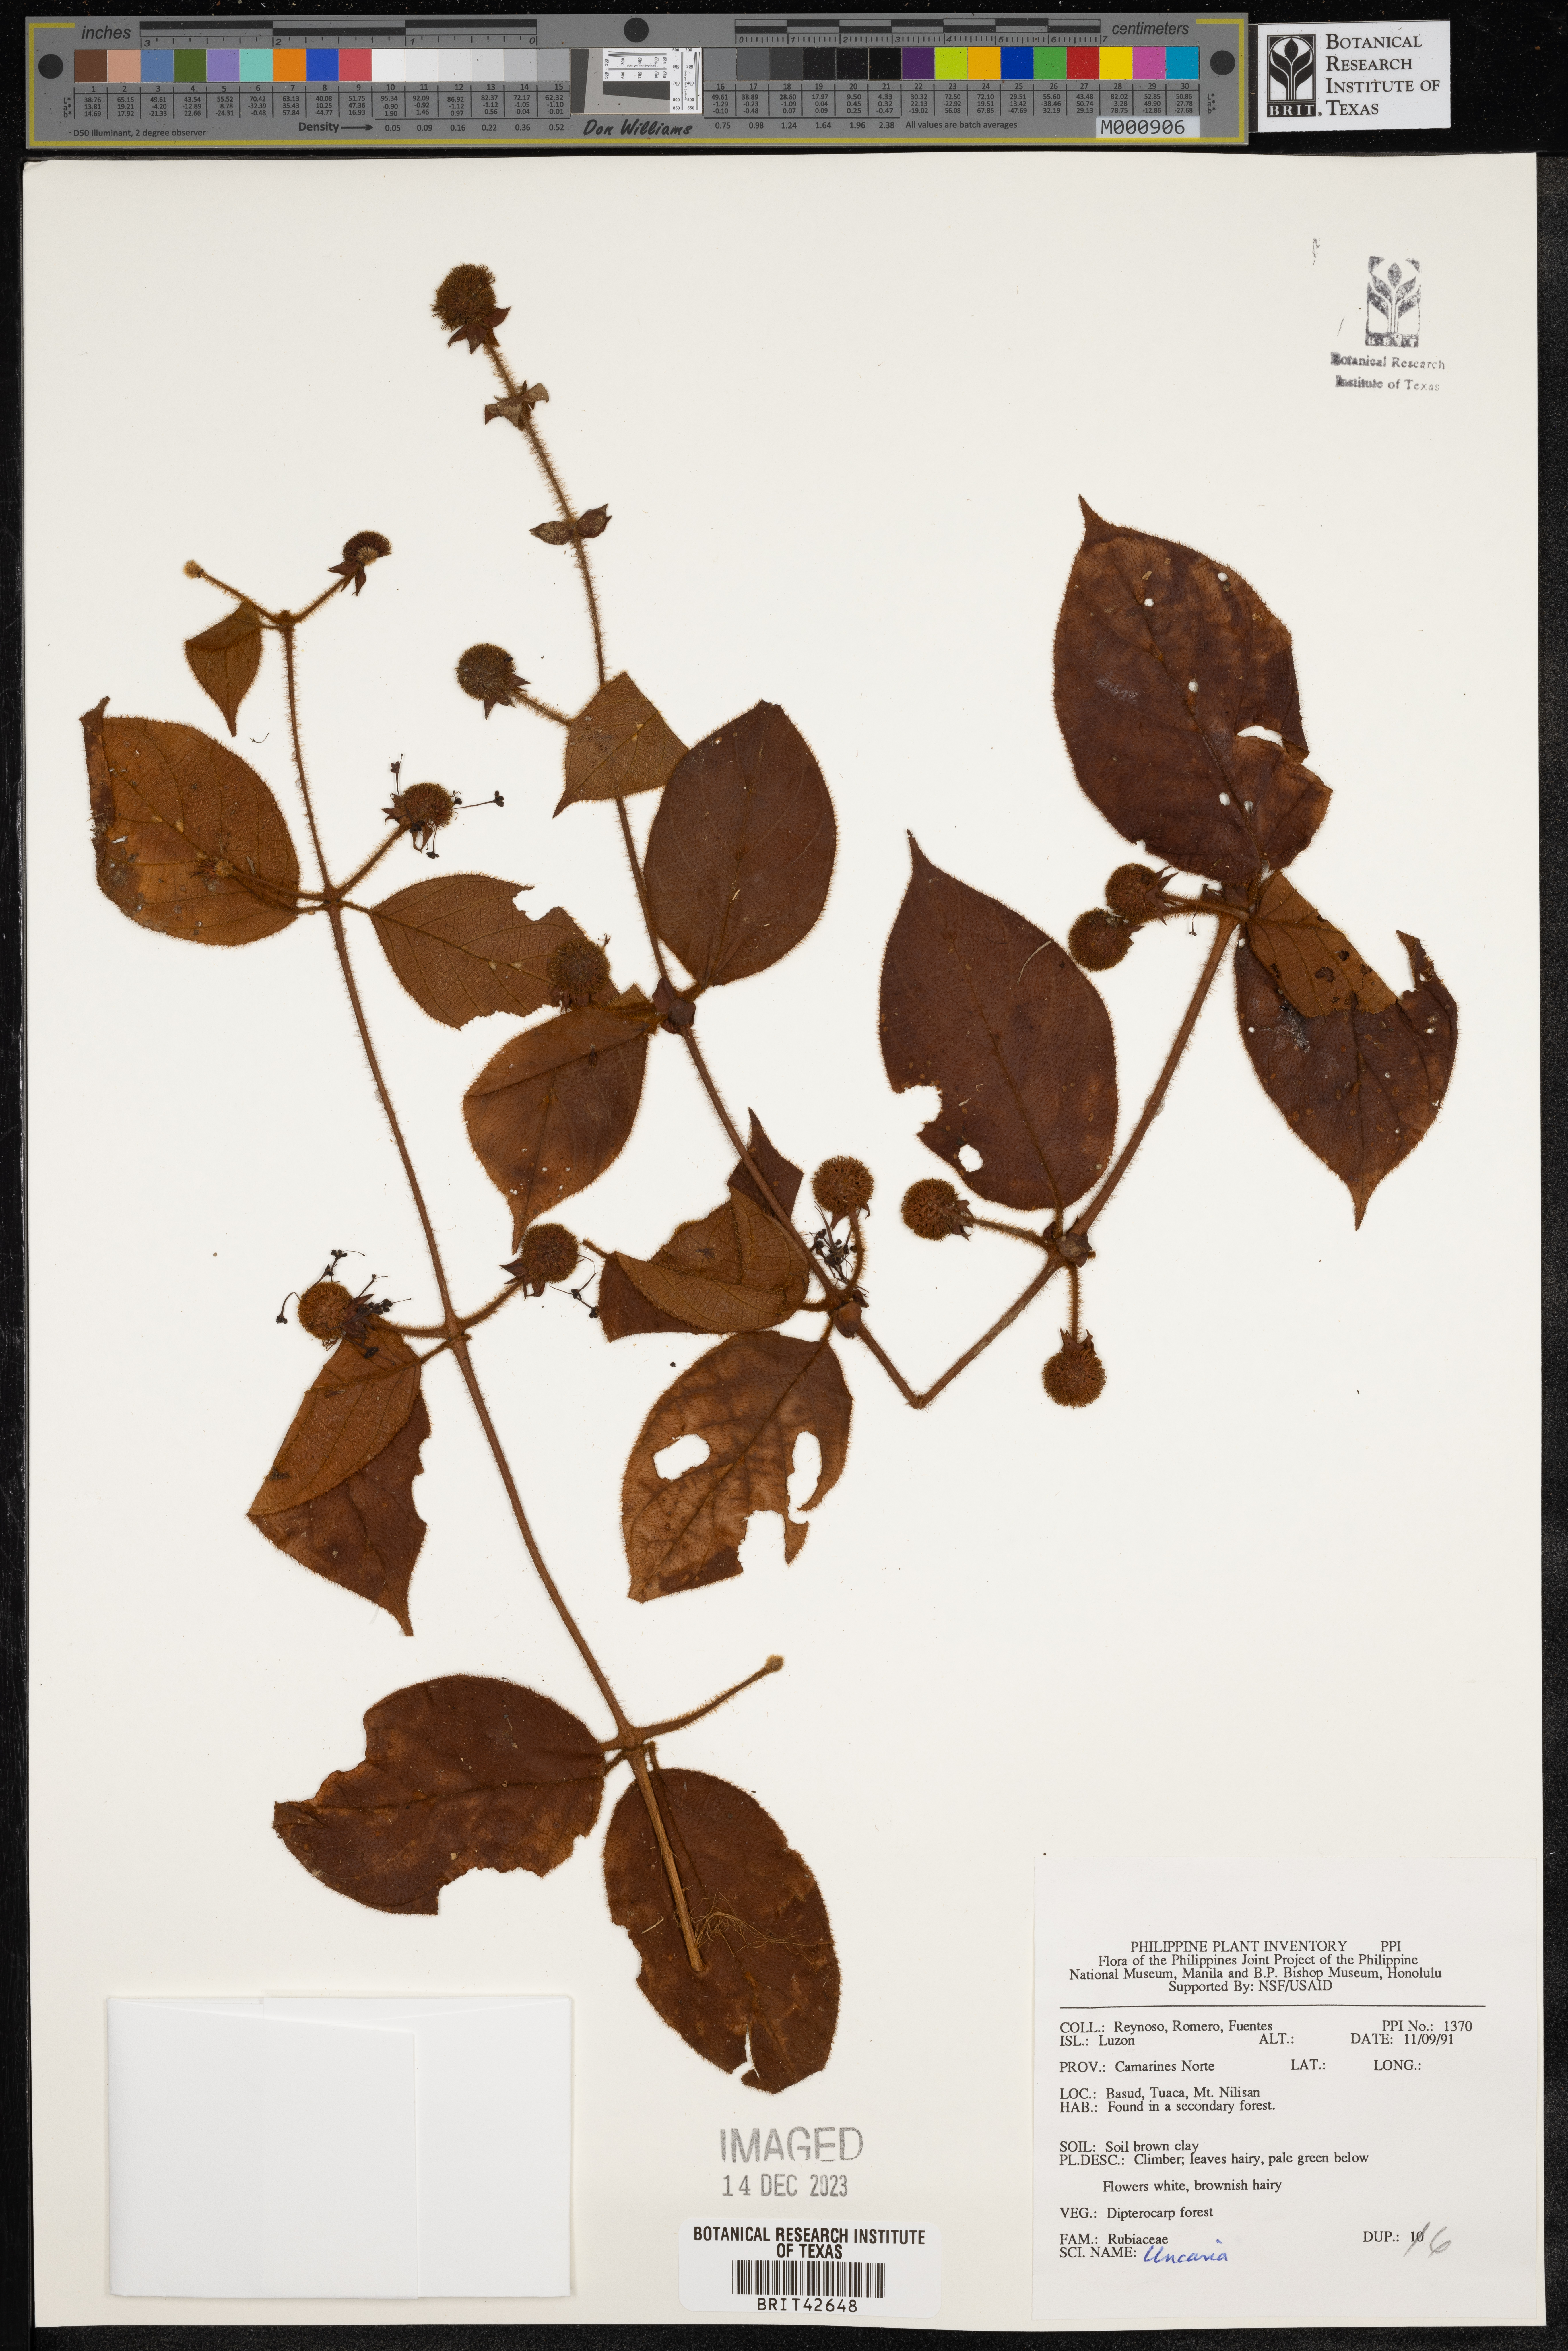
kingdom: Plantae
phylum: Tracheophyta
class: Magnoliopsida
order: Gentianales
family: Rubiaceae
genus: Uncaria
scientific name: Uncaria
